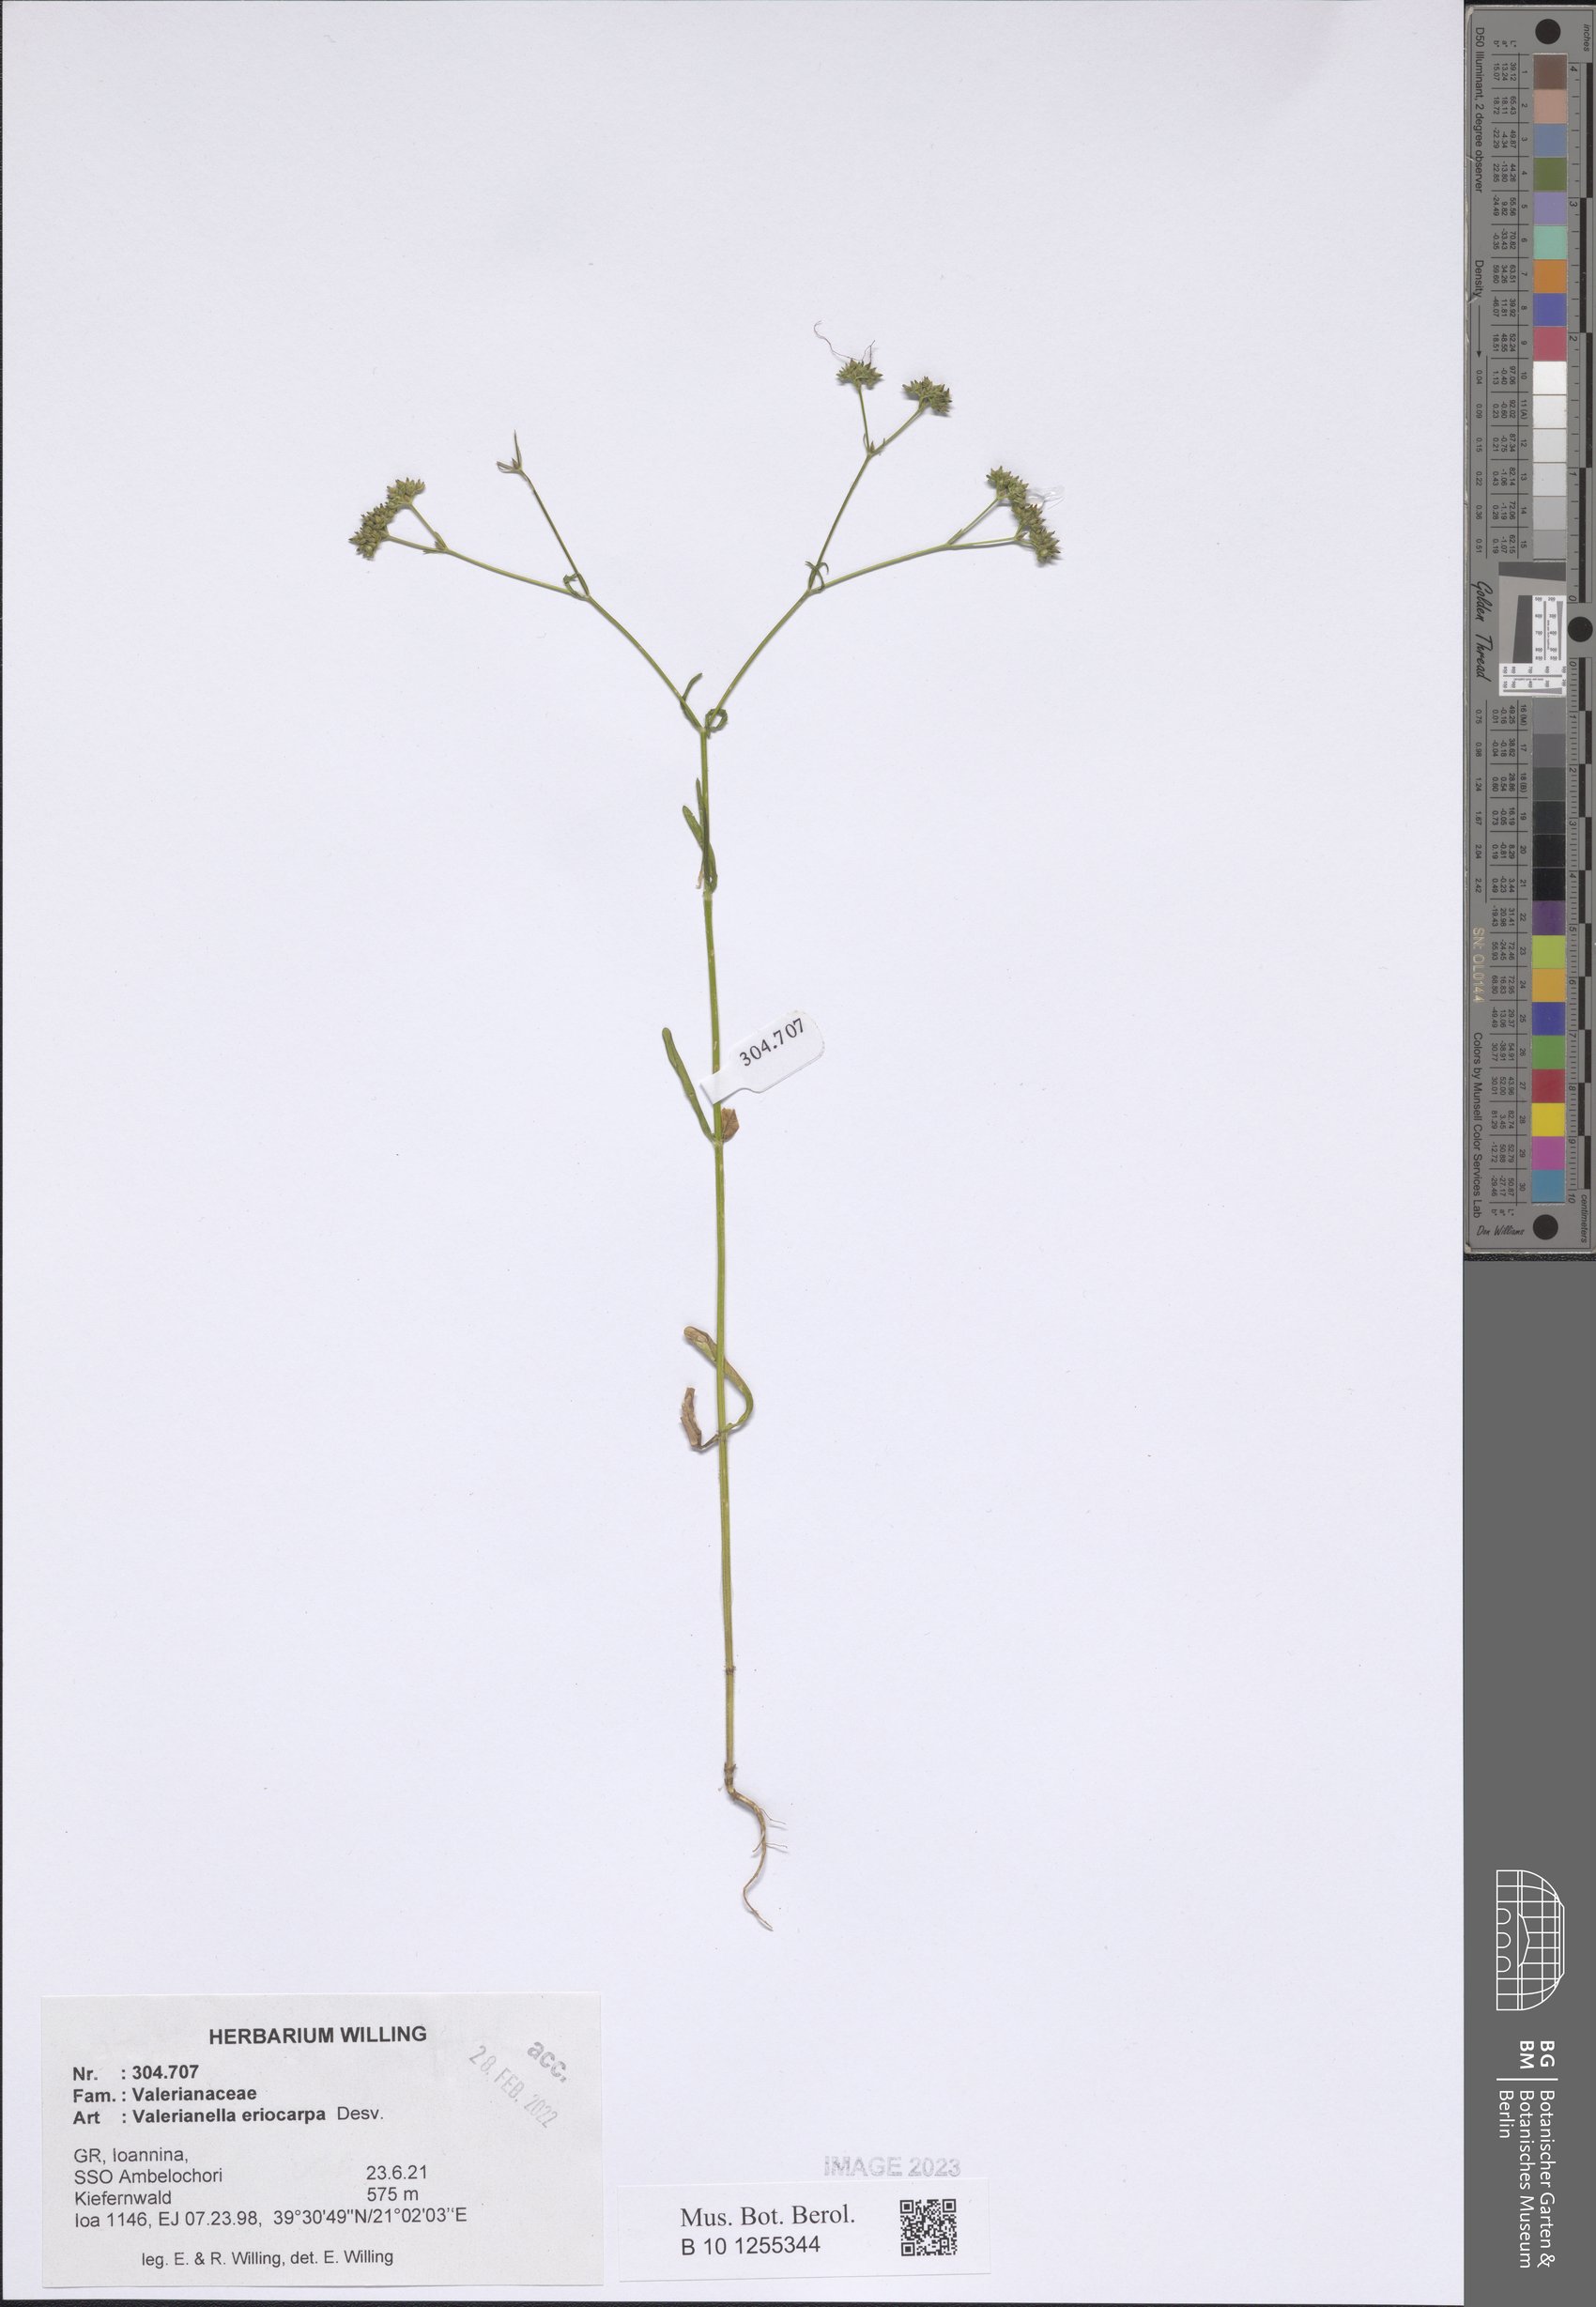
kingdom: Plantae
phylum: Tracheophyta
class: Magnoliopsida
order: Dipsacales
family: Caprifoliaceae
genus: Valerianella
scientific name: Valerianella eriocarpa
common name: Hairy-fruited cornsalad
